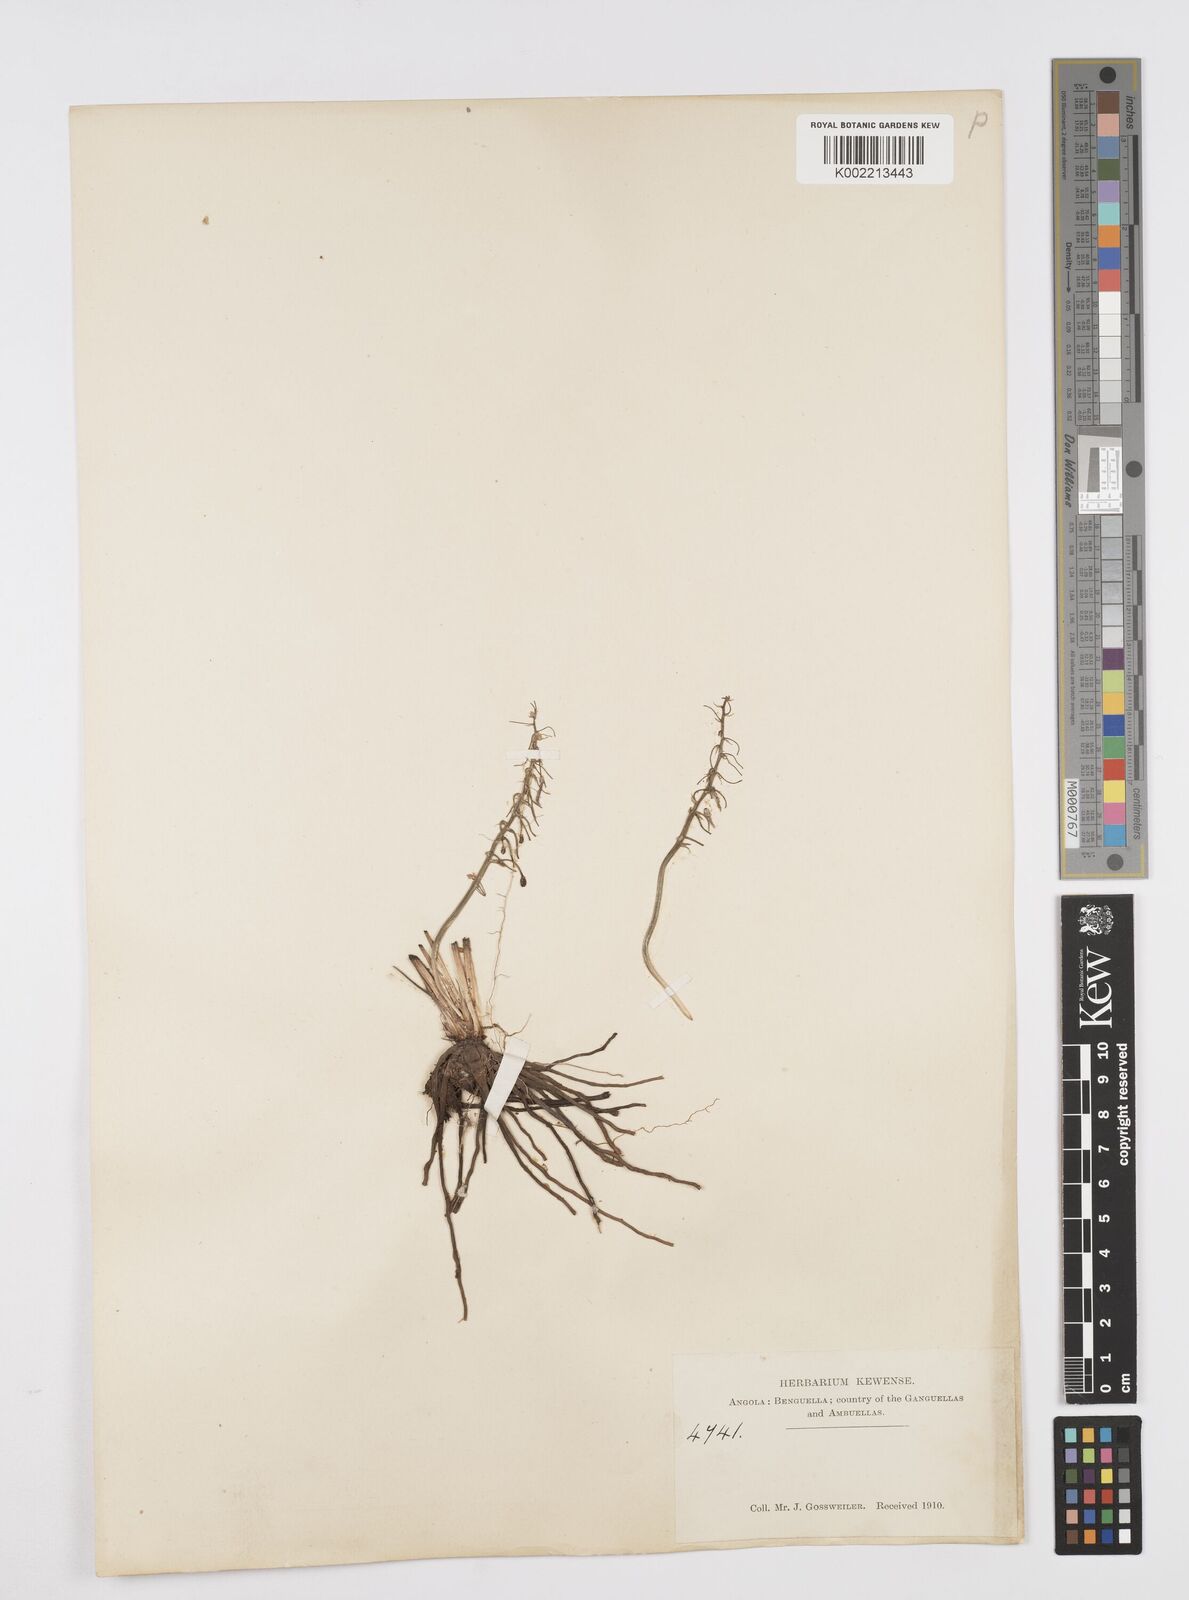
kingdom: Plantae
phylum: Tracheophyta
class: Liliopsida
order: Asparagales
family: Asphodelaceae
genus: Trachyandra
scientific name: Trachyandra saltii
